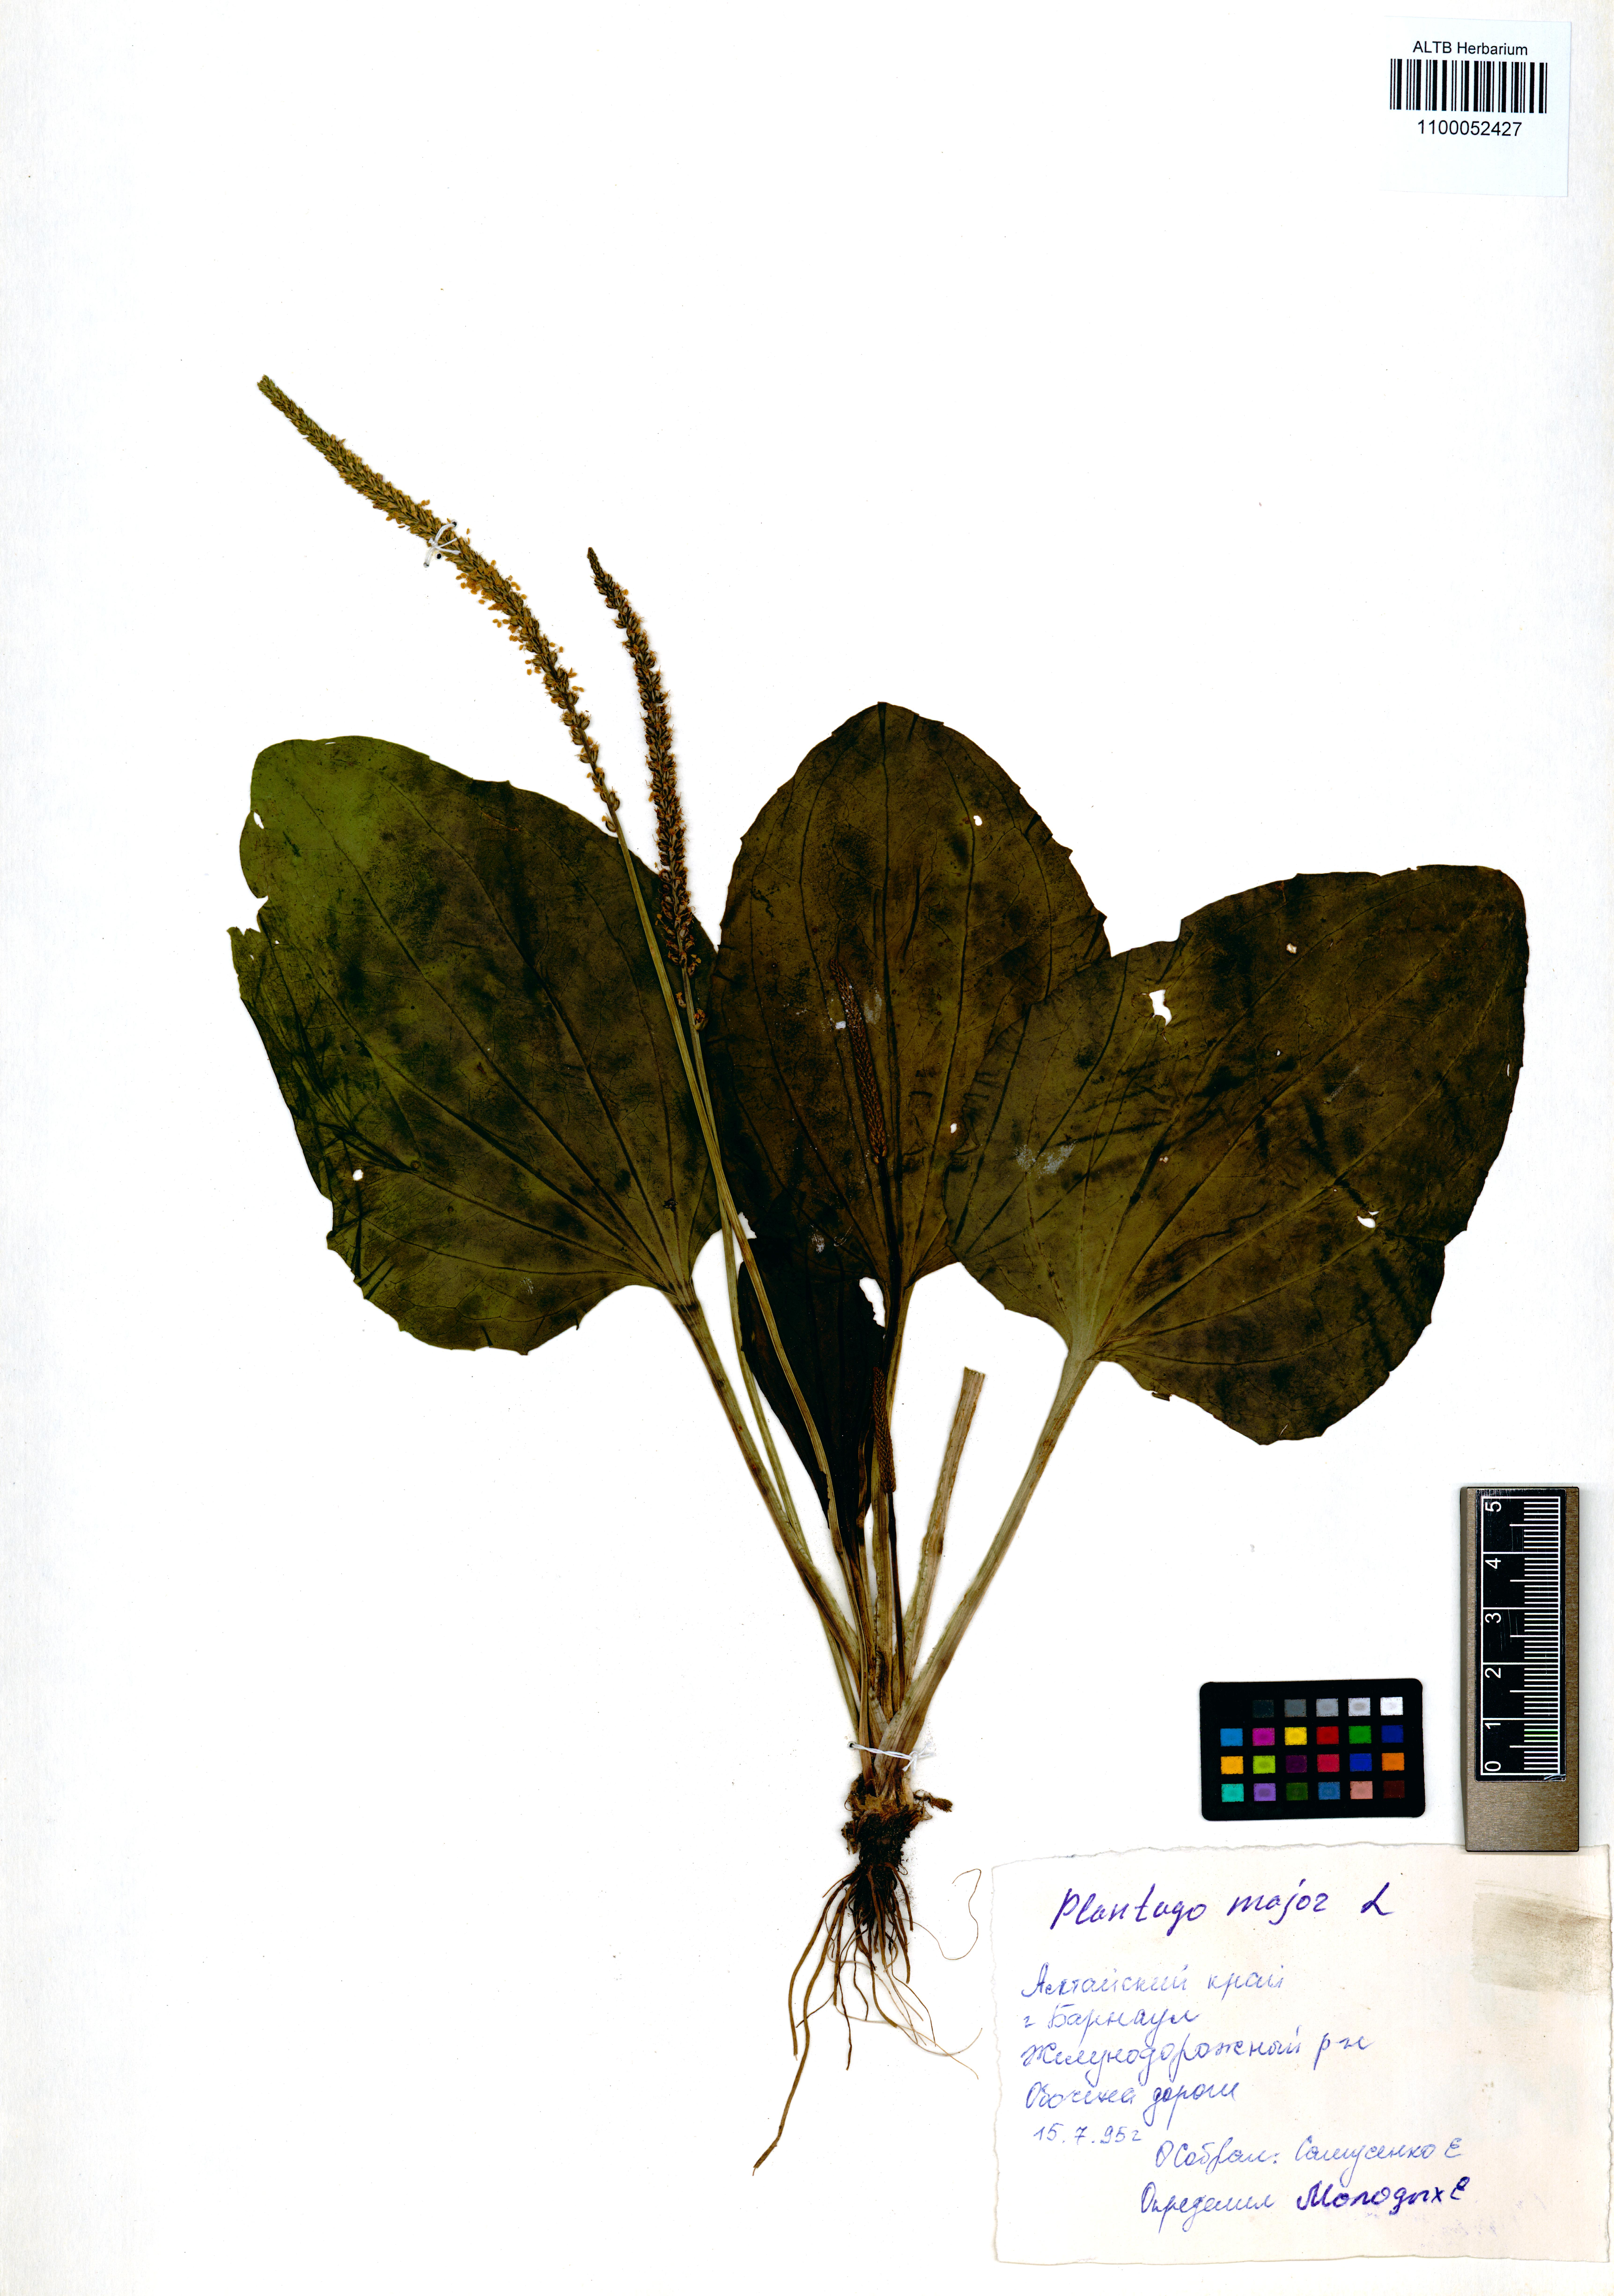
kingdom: Plantae
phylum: Tracheophyta
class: Magnoliopsida
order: Lamiales
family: Plantaginaceae
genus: Plantago
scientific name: Plantago major
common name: Common plantain
